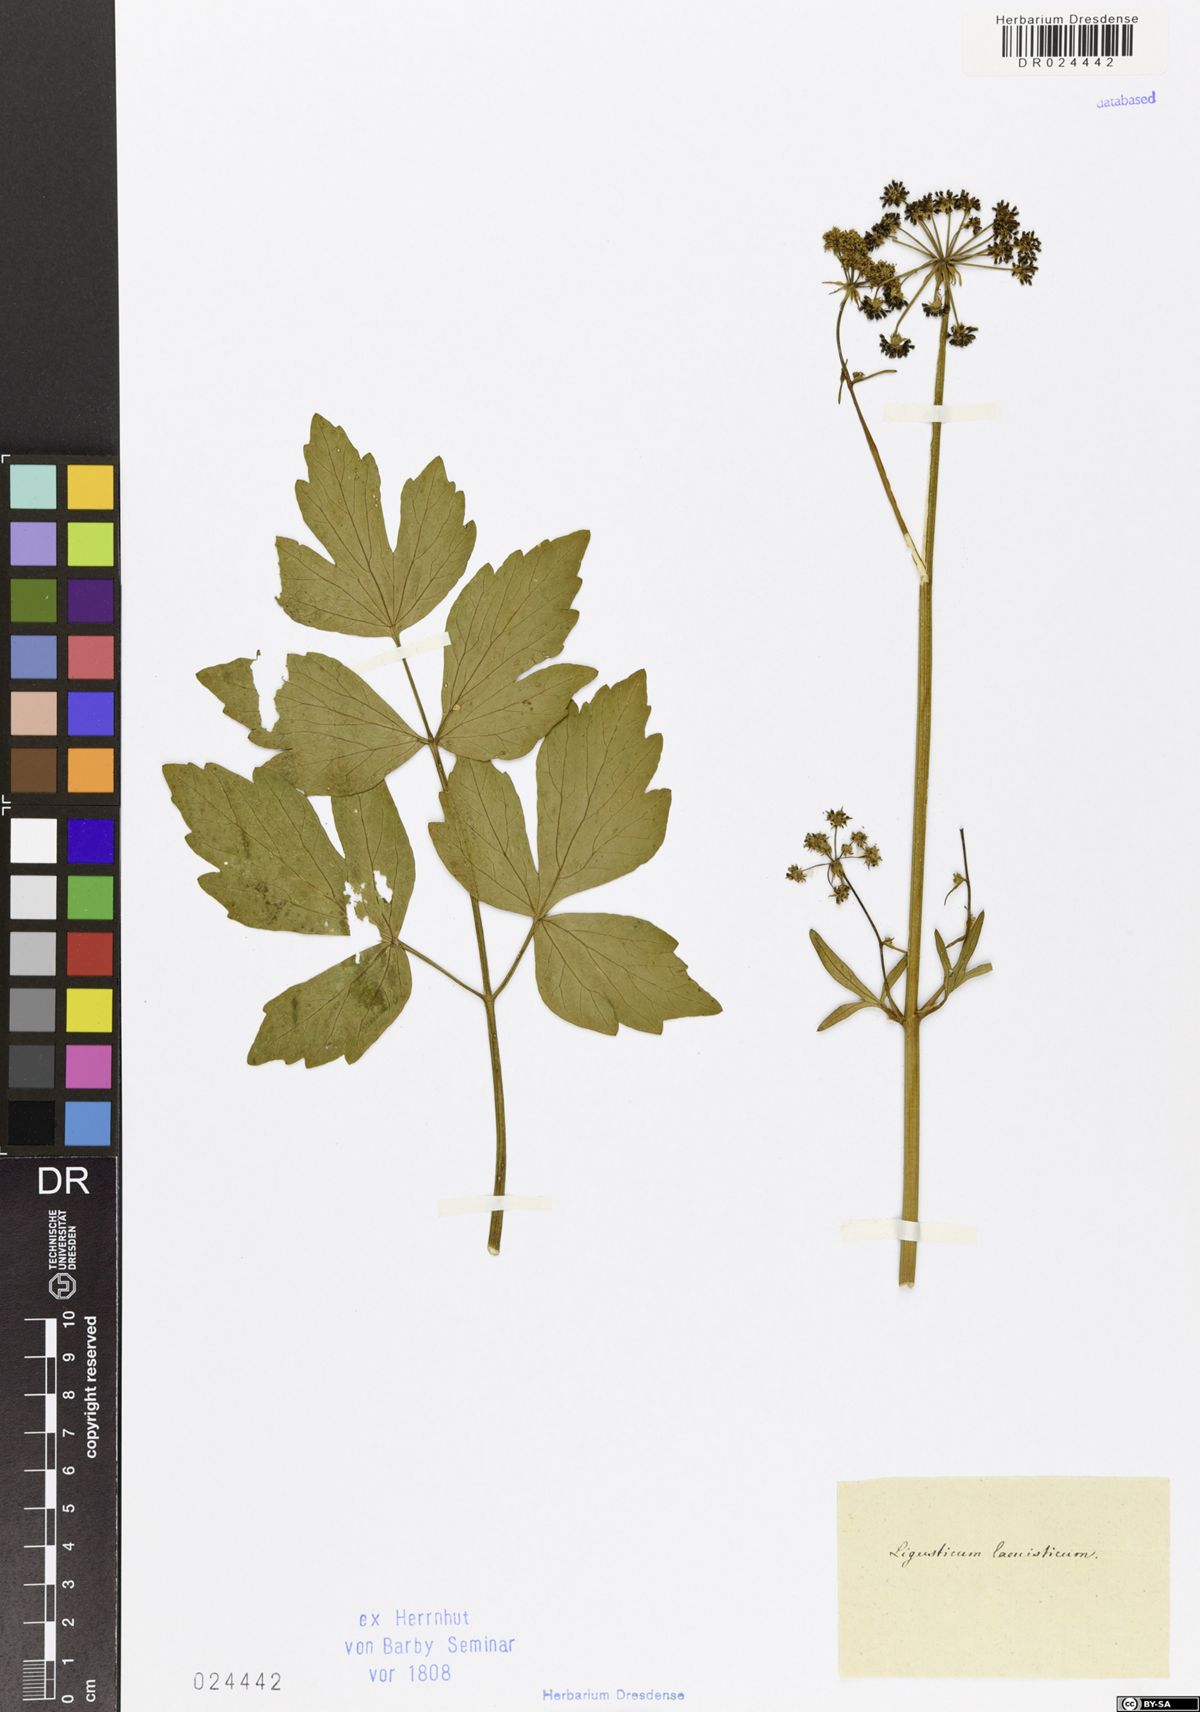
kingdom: Plantae
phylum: Tracheophyta
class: Magnoliopsida
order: Apiales
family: Apiaceae
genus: Levisticum
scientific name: Levisticum officinale
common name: Lovage
